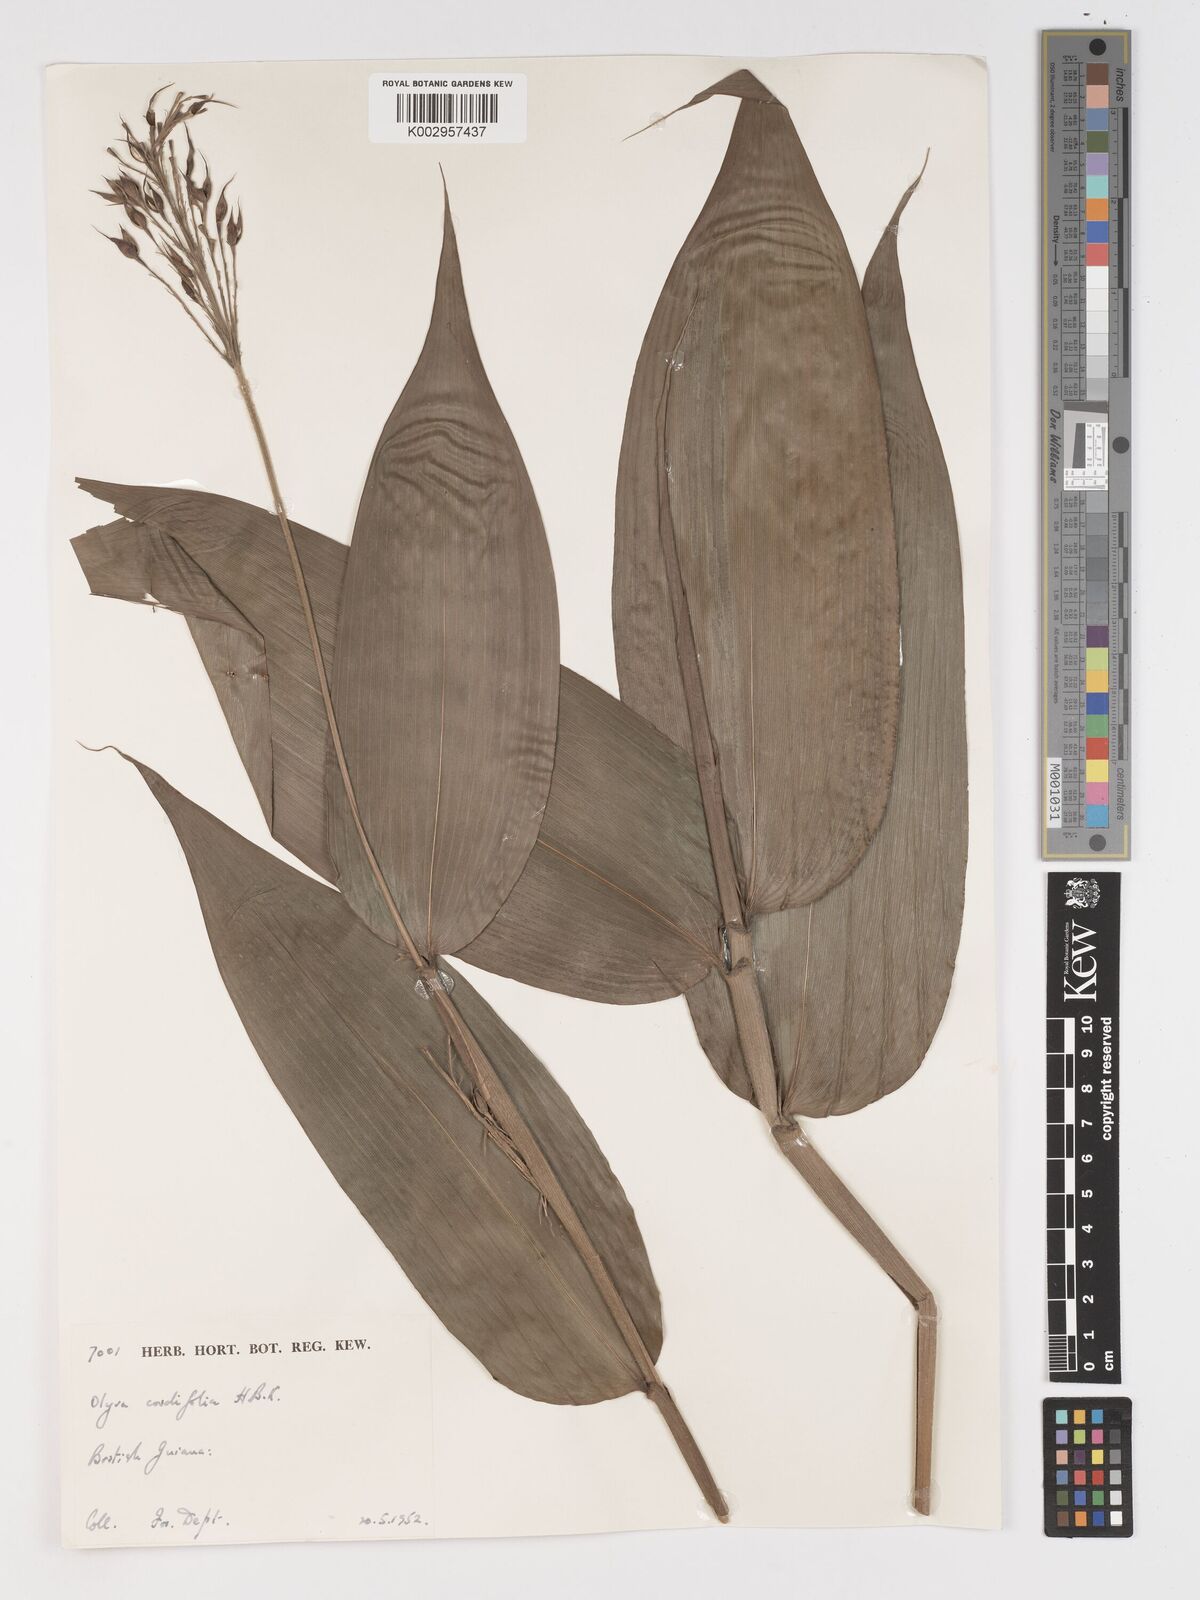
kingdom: Plantae
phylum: Tracheophyta
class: Liliopsida
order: Poales
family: Poaceae
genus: Olyra
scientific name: Olyra latifolia
